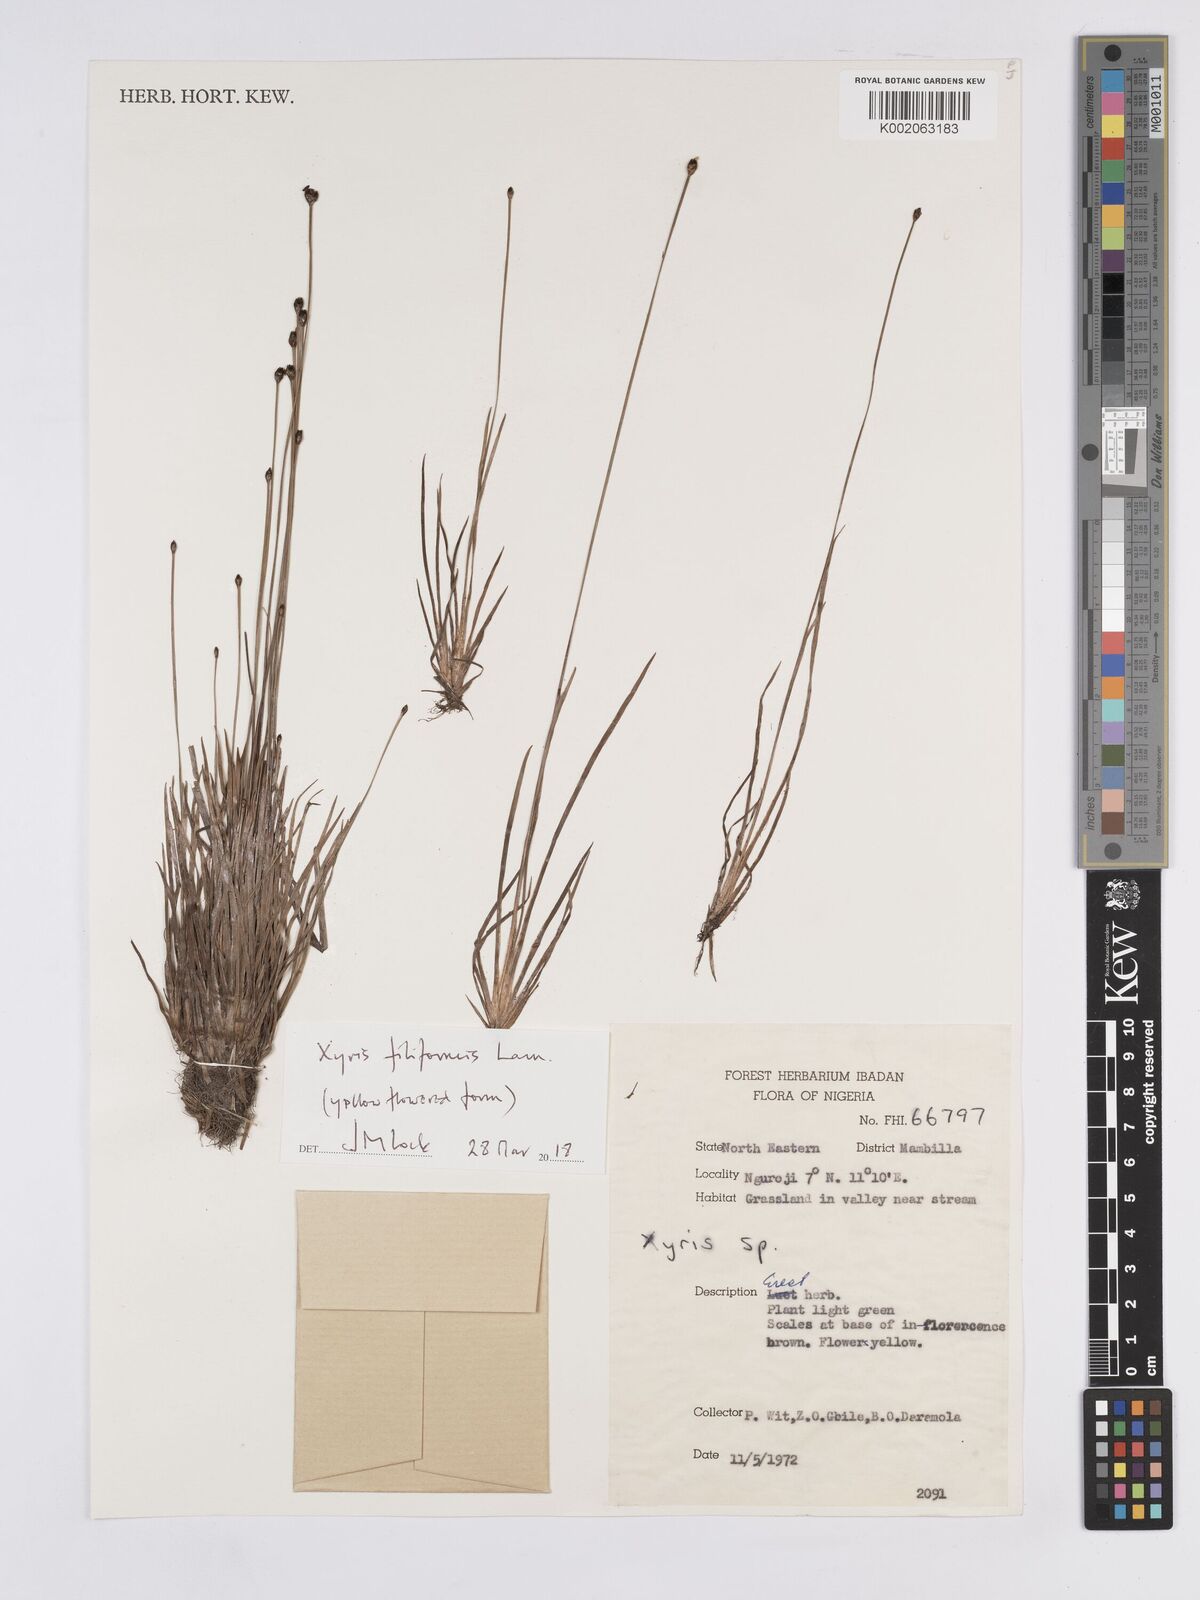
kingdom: Plantae
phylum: Tracheophyta
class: Liliopsida
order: Poales
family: Xyridaceae
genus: Xyris
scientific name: Xyris filiformis
